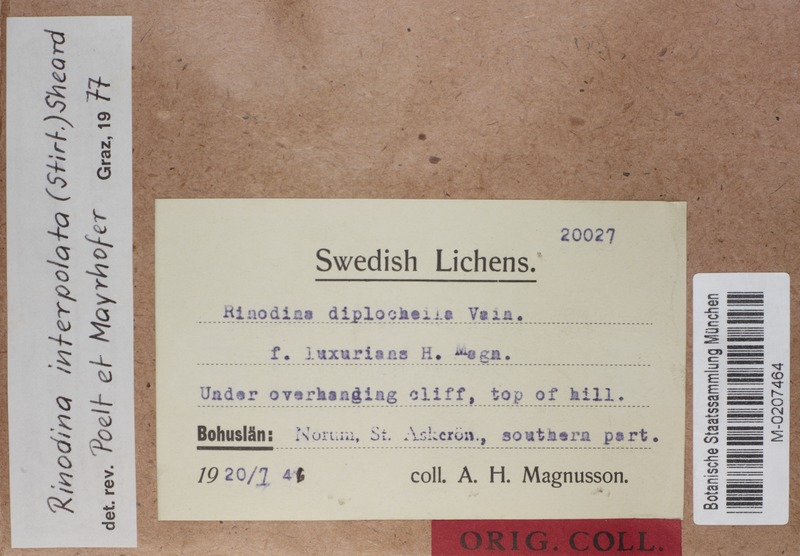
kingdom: Fungi
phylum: Ascomycota
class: Lecanoromycetes
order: Caliciales
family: Physciaceae
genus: Rinodina
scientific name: Rinodina interpolata
